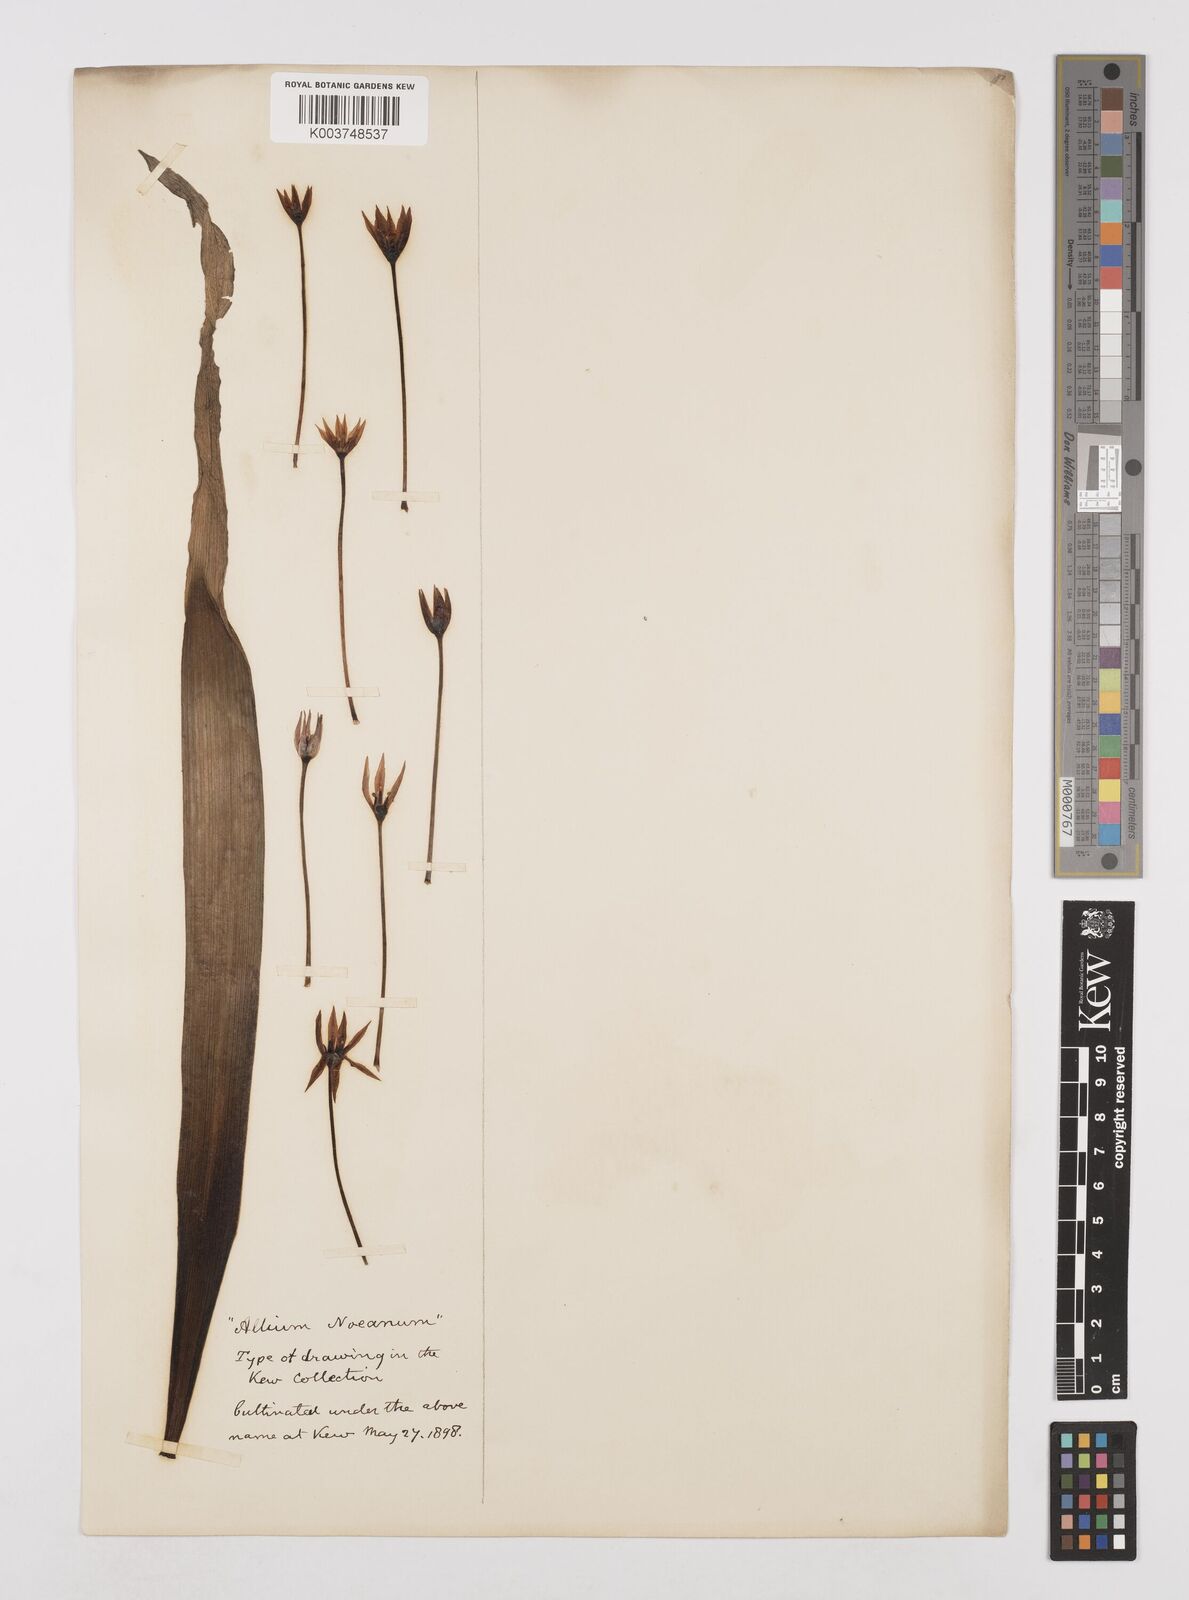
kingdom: Plantae
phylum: Tracheophyta
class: Liliopsida
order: Asparagales
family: Amaryllidaceae
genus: Allium
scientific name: Allium noeanum
